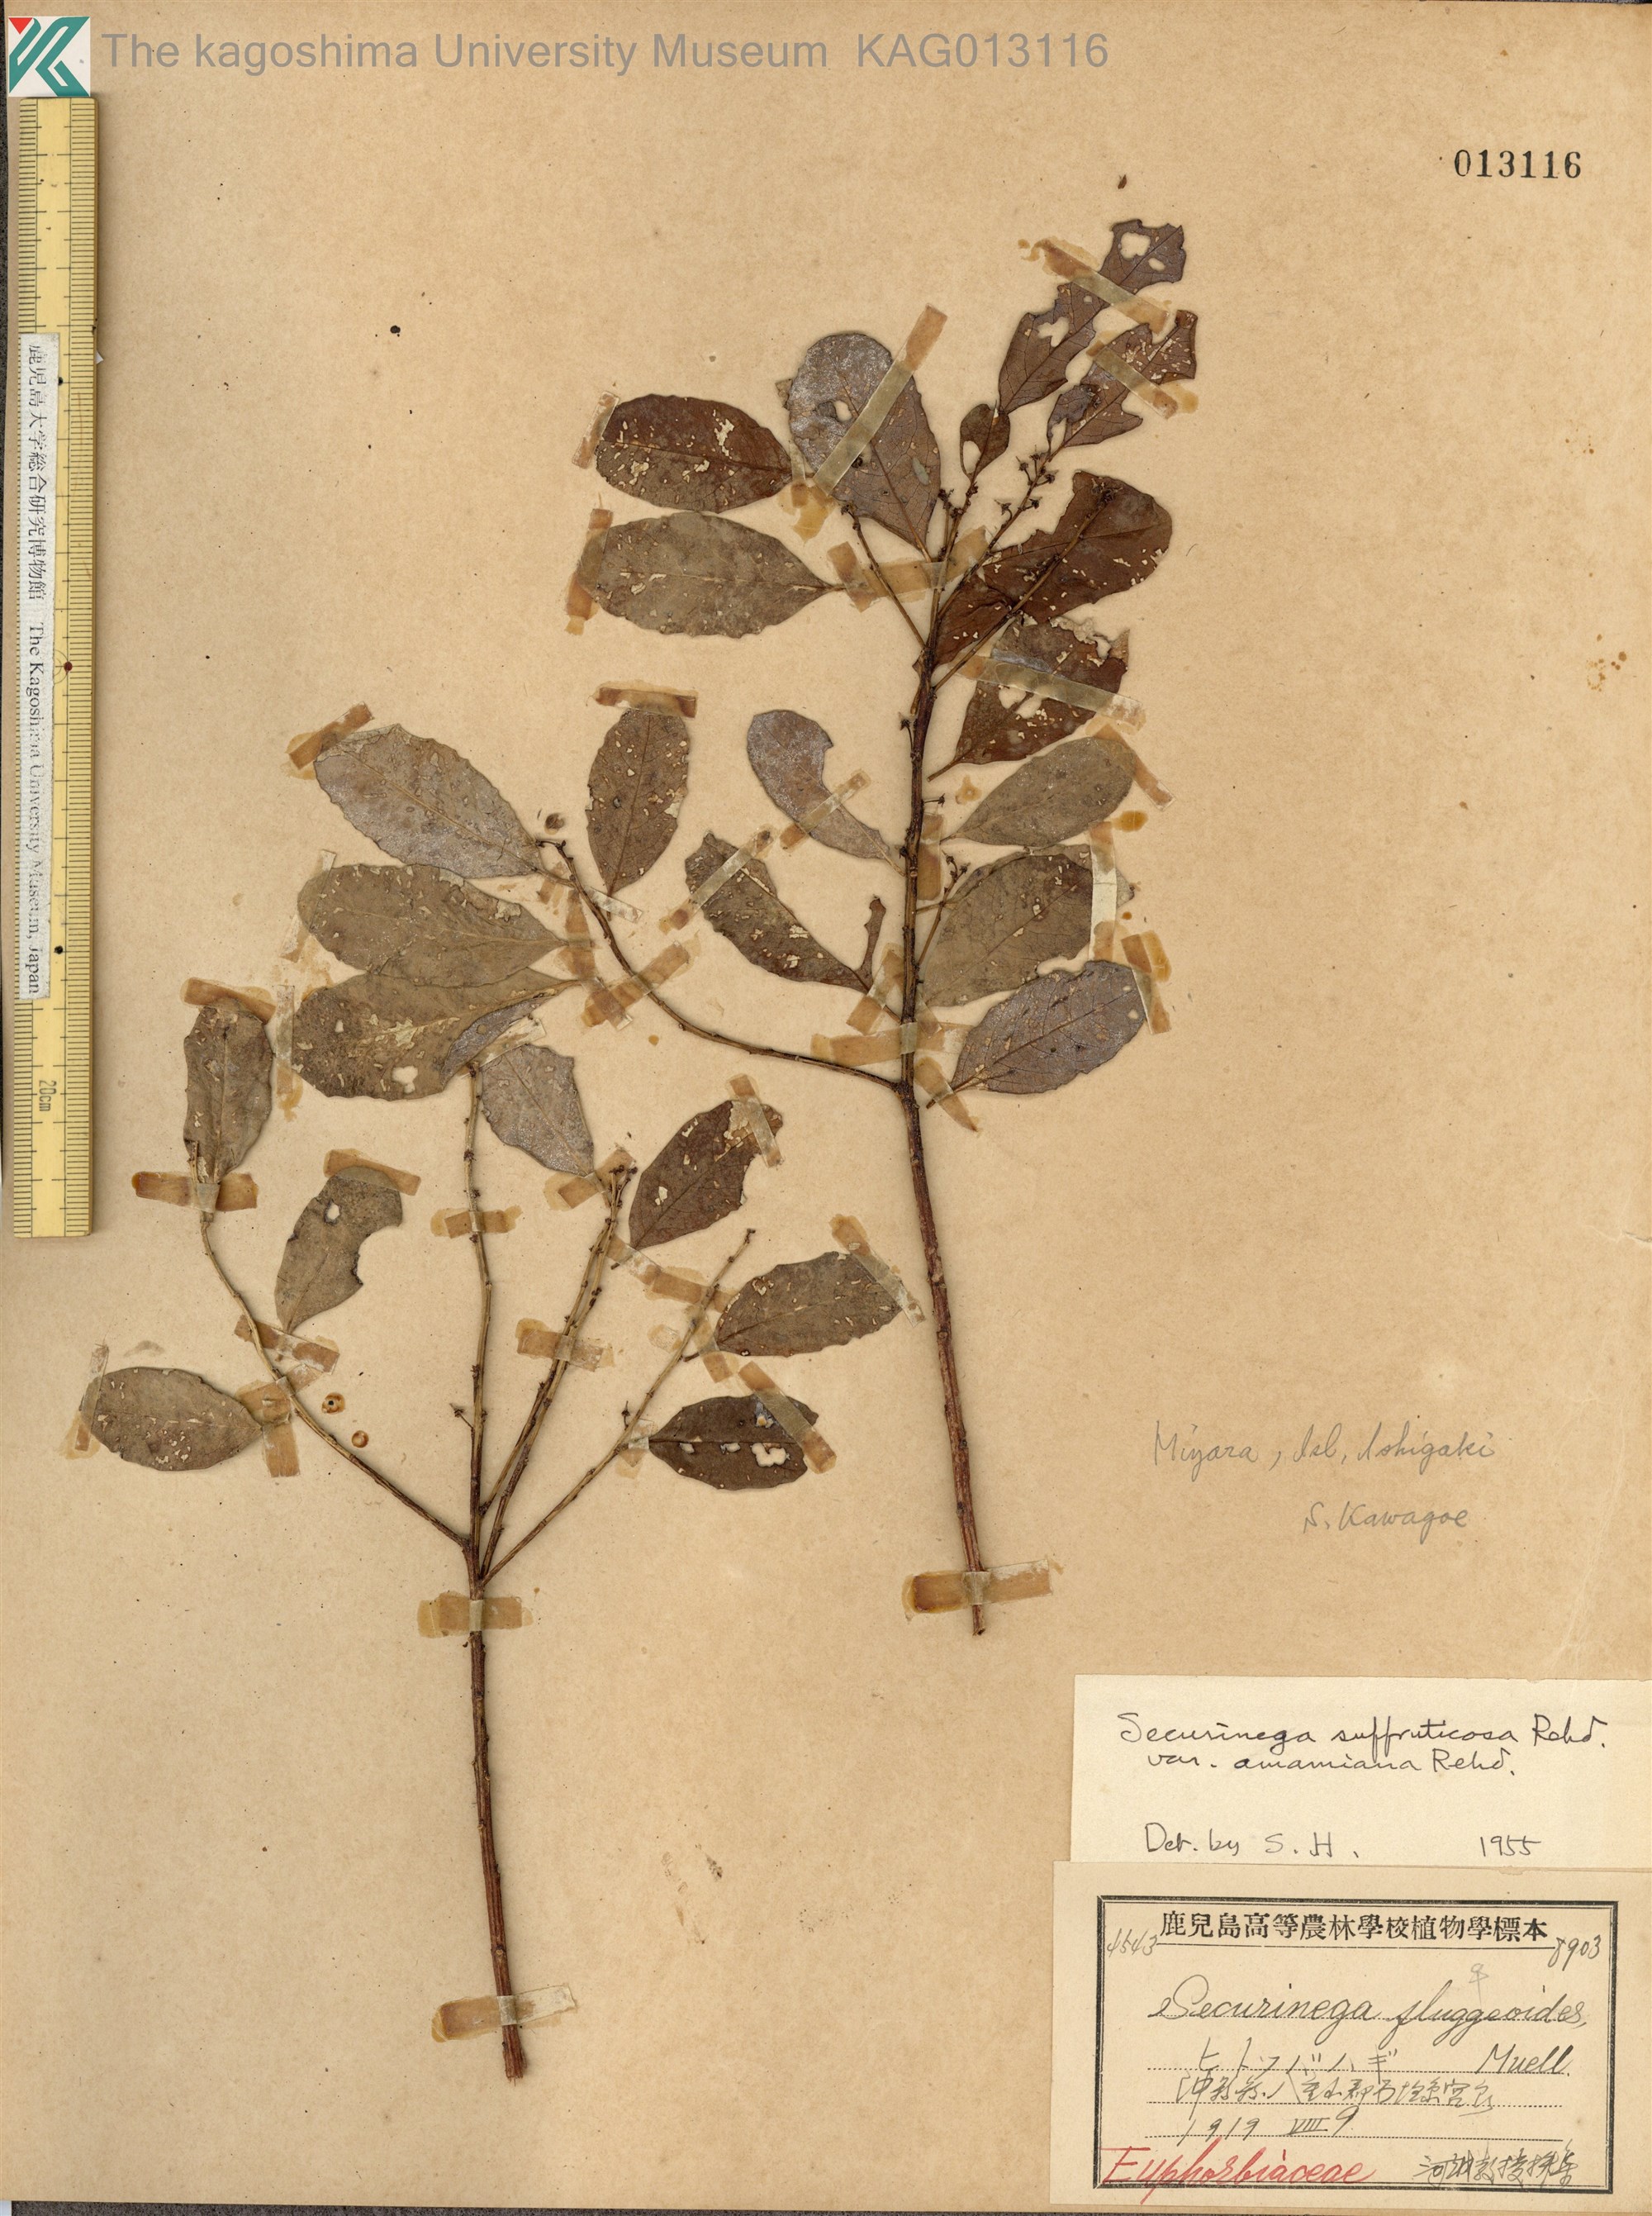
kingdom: Plantae
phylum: Tracheophyta
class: Magnoliopsida
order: Malpighiales
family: Phyllanthaceae
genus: Flueggea
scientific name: Flueggea suffruticosa
